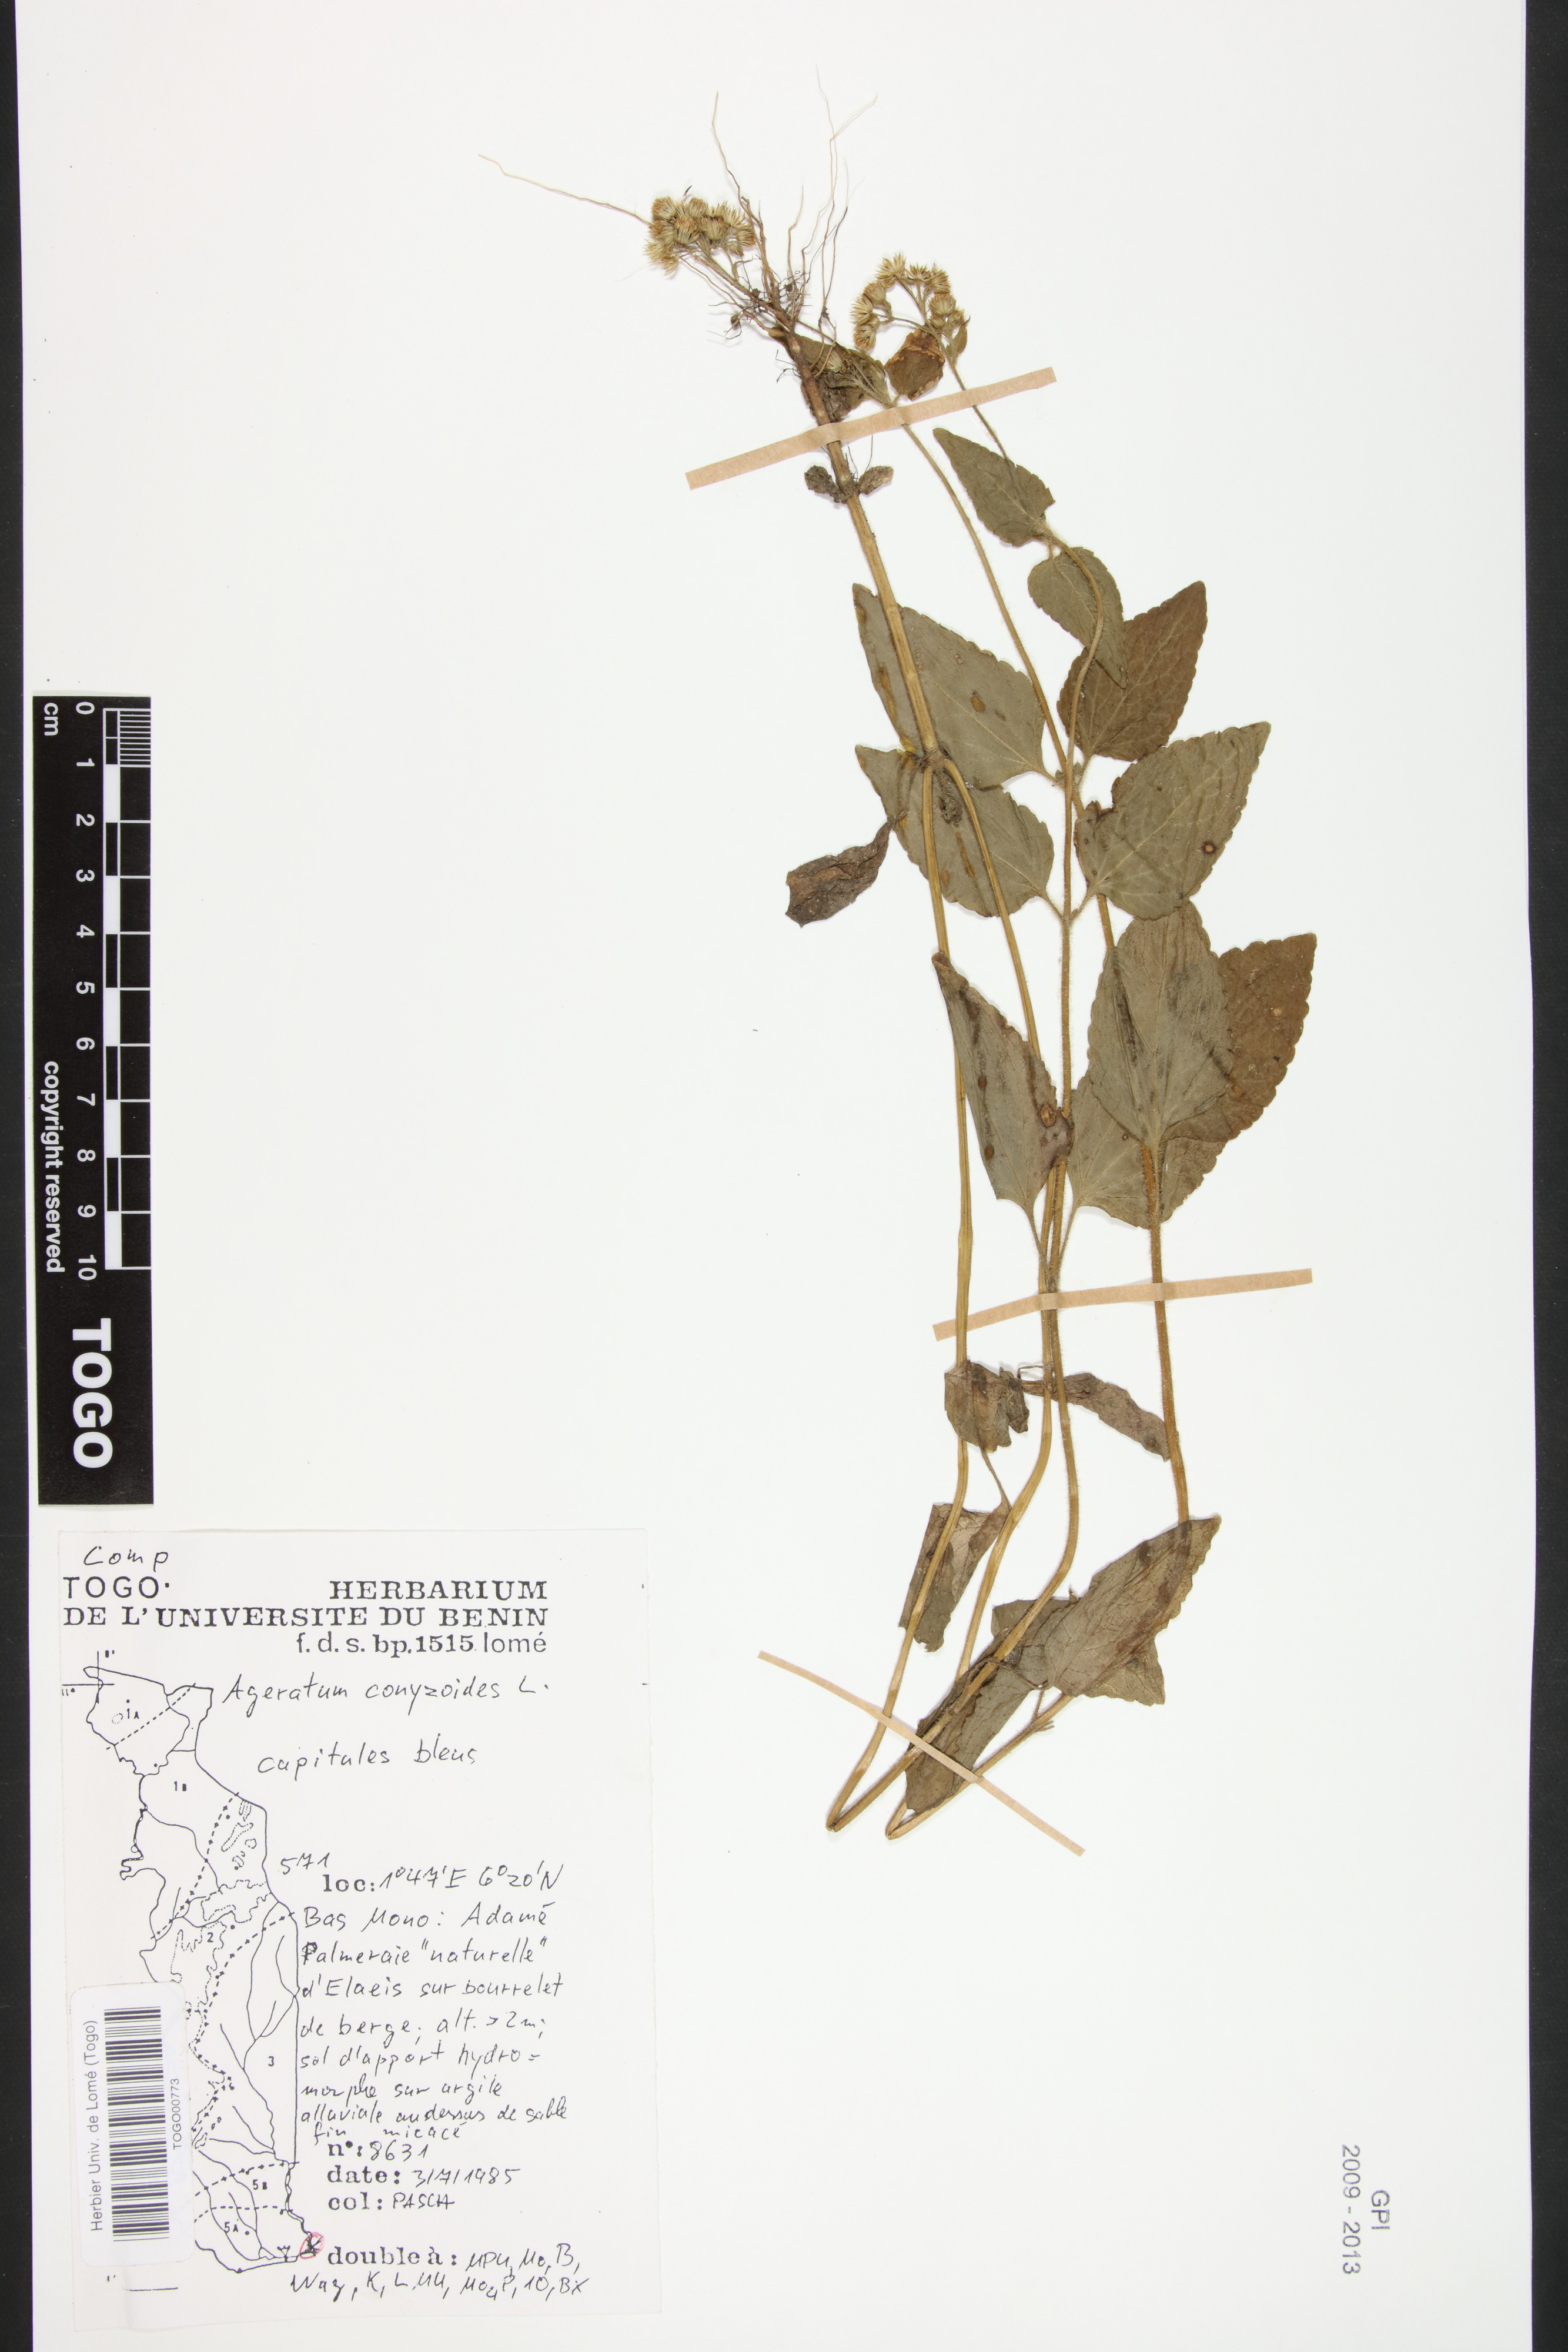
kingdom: Plantae
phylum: Tracheophyta
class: Magnoliopsida
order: Asterales
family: Asteraceae
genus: Ageratum
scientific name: Ageratum conyzoides
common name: Tropical whiteweed
